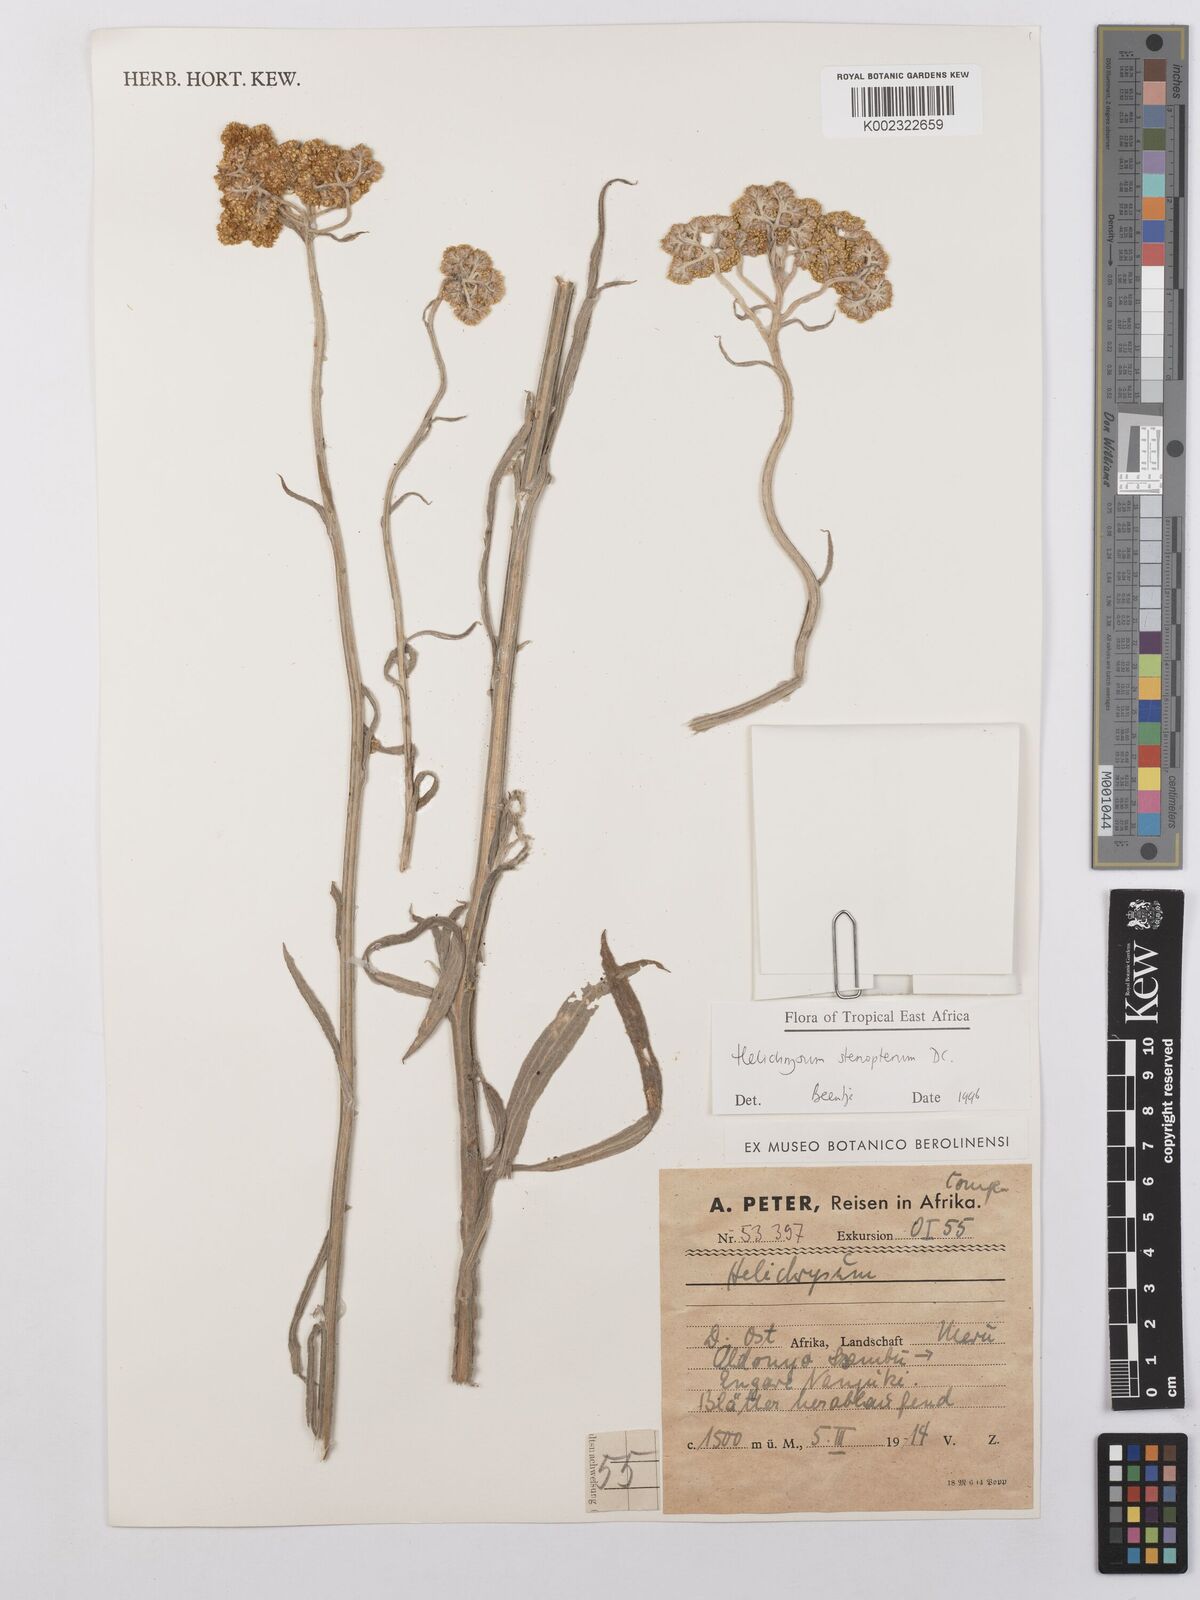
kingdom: Plantae
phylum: Tracheophyta
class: Magnoliopsida
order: Asterales
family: Asteraceae
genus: Helichrysum
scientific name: Helichrysum stenopterum
